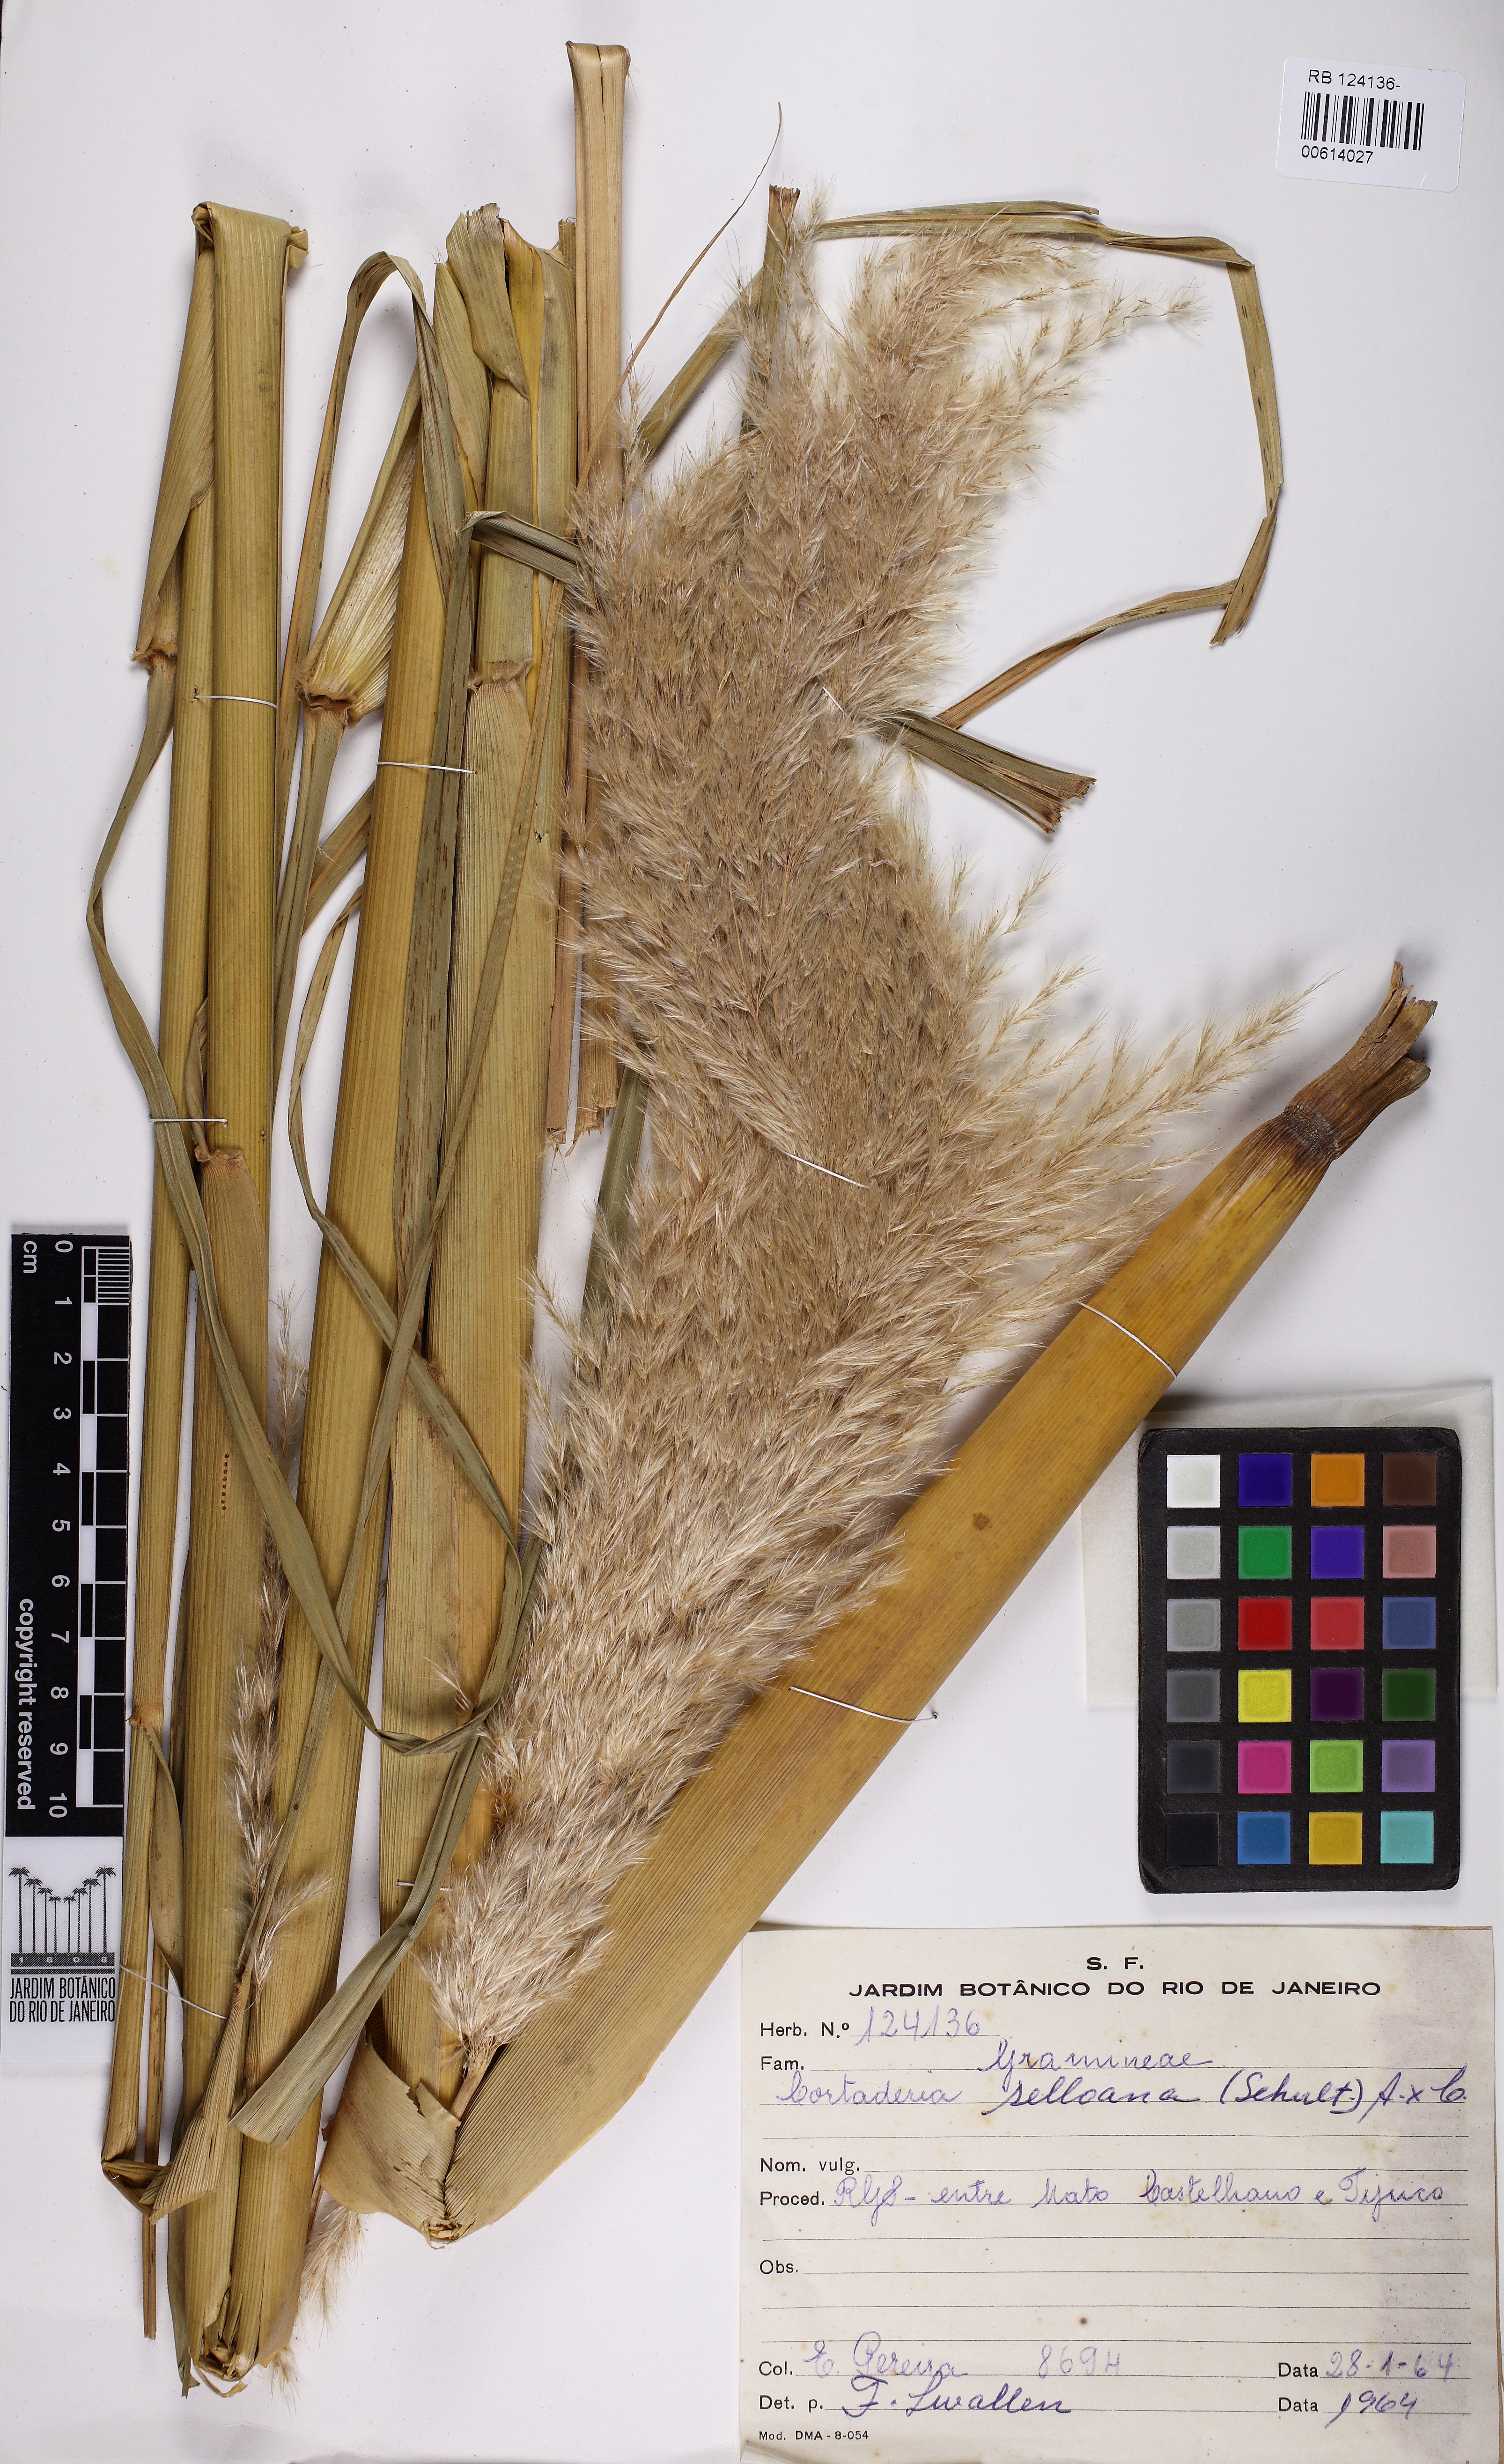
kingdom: Plantae
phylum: Tracheophyta
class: Liliopsida
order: Poales
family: Poaceae
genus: Cortaderia
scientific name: Cortaderia selloana
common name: Uruguayan pampas grass
